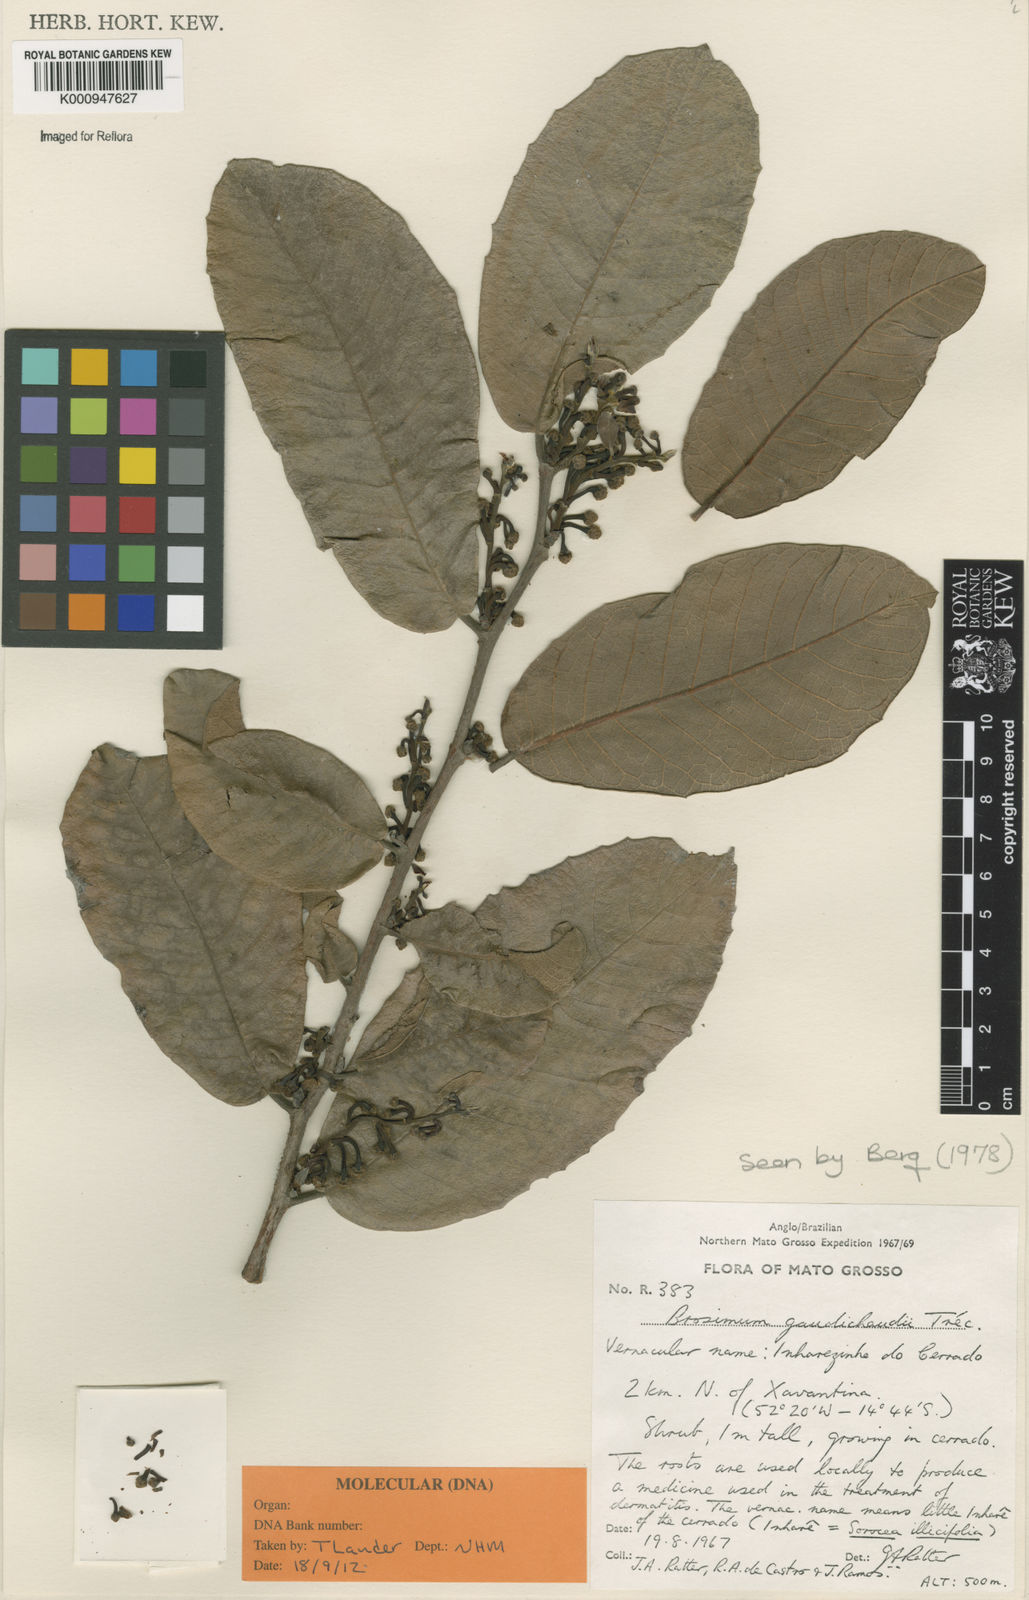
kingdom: Plantae
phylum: Tracheophyta
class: Magnoliopsida
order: Rosales
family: Moraceae
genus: Brosimum
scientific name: Brosimum
